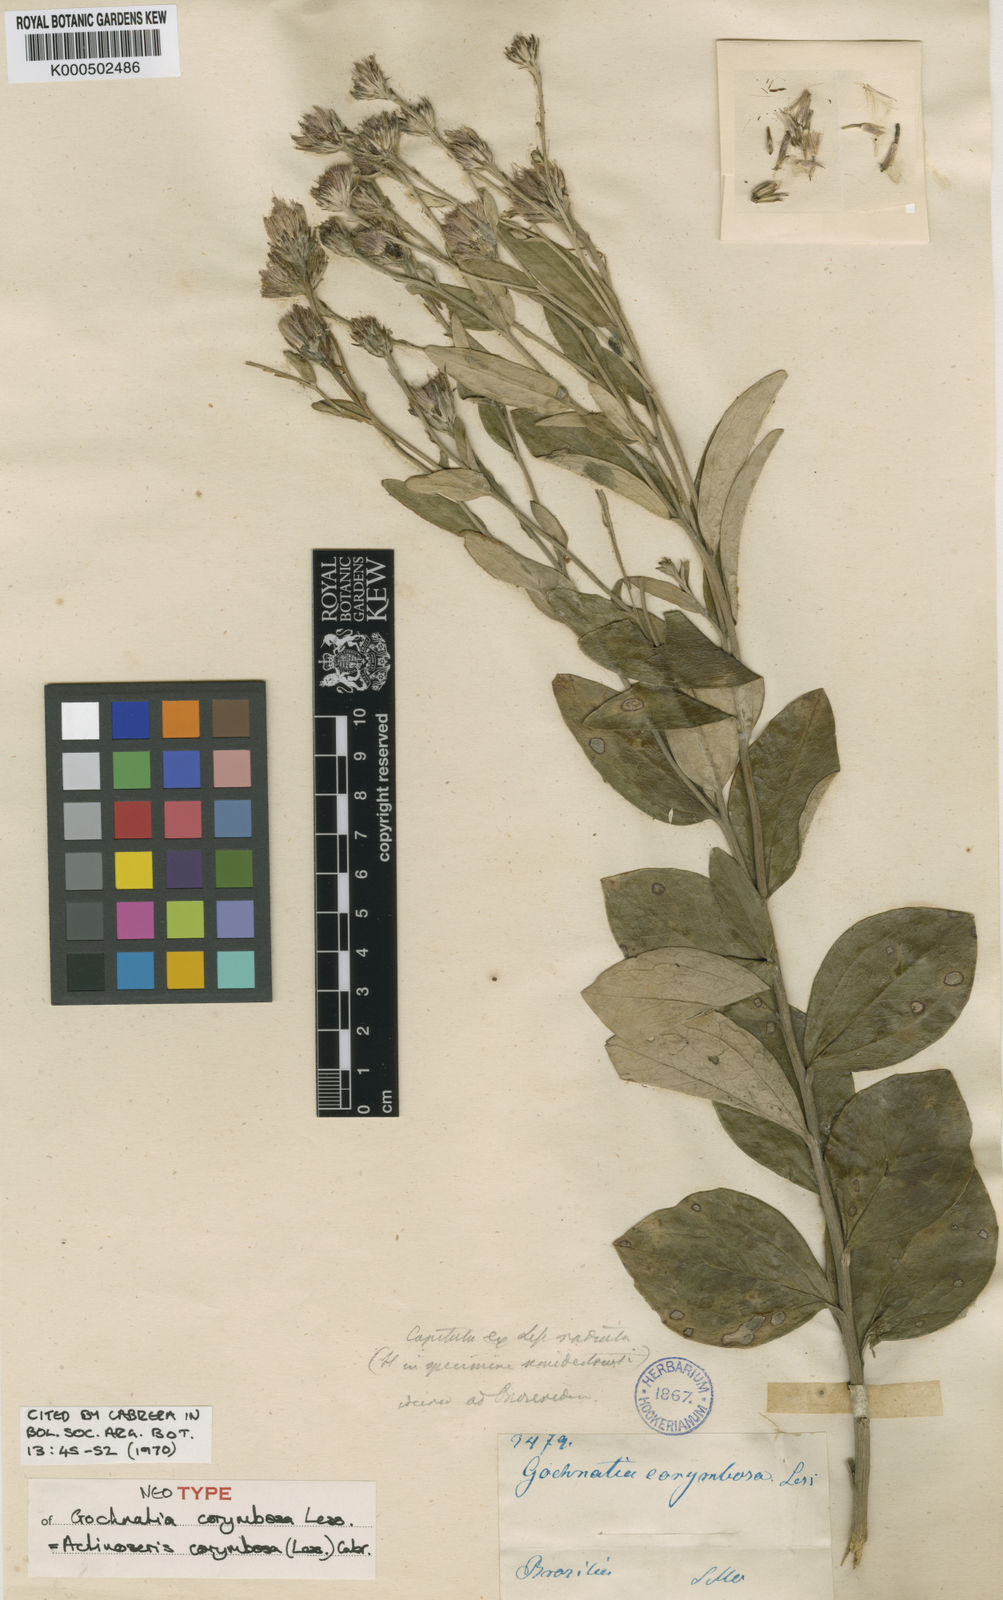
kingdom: Plantae
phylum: Tracheophyta
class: Magnoliopsida
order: Asterales
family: Asteraceae
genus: Ianthopappus
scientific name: Ianthopappus corymbosus
